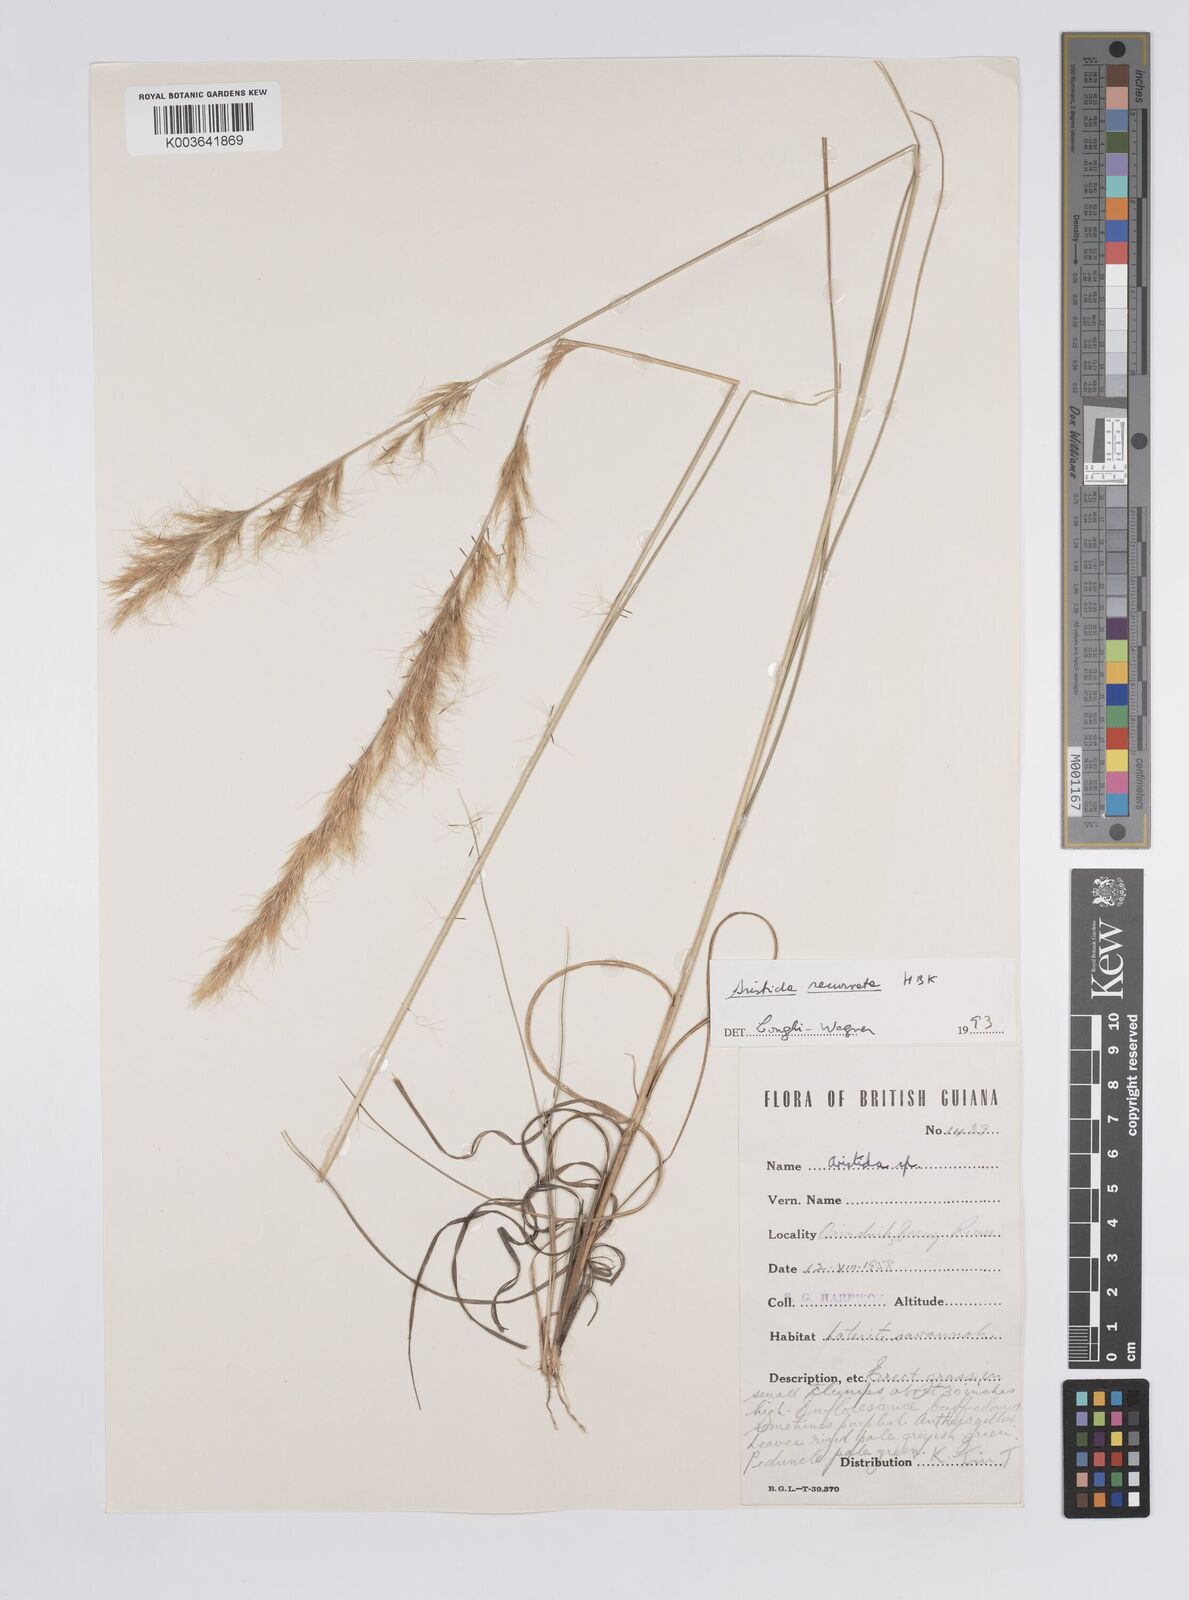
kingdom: Plantae
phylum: Tracheophyta
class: Liliopsida
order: Poales
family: Poaceae
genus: Aristida
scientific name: Aristida recurvata
